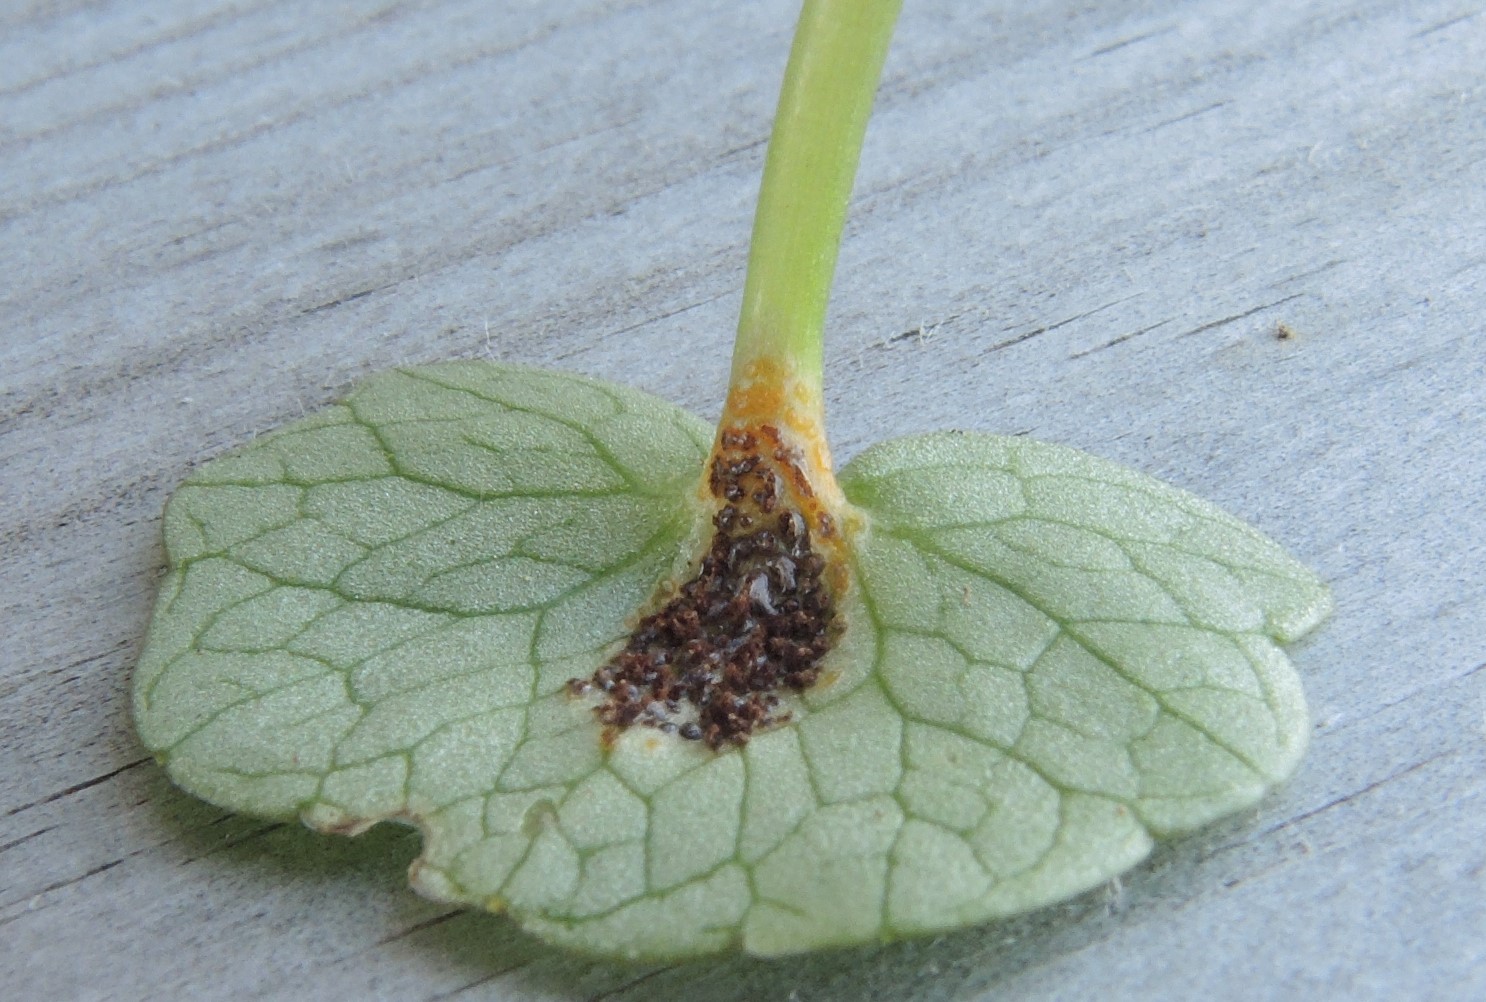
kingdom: Fungi
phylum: Basidiomycota
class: Pucciniomycetes
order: Pucciniales
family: Pucciniaceae
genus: Uromyces
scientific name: Uromyces ficariae
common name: vorterod-encellerust
